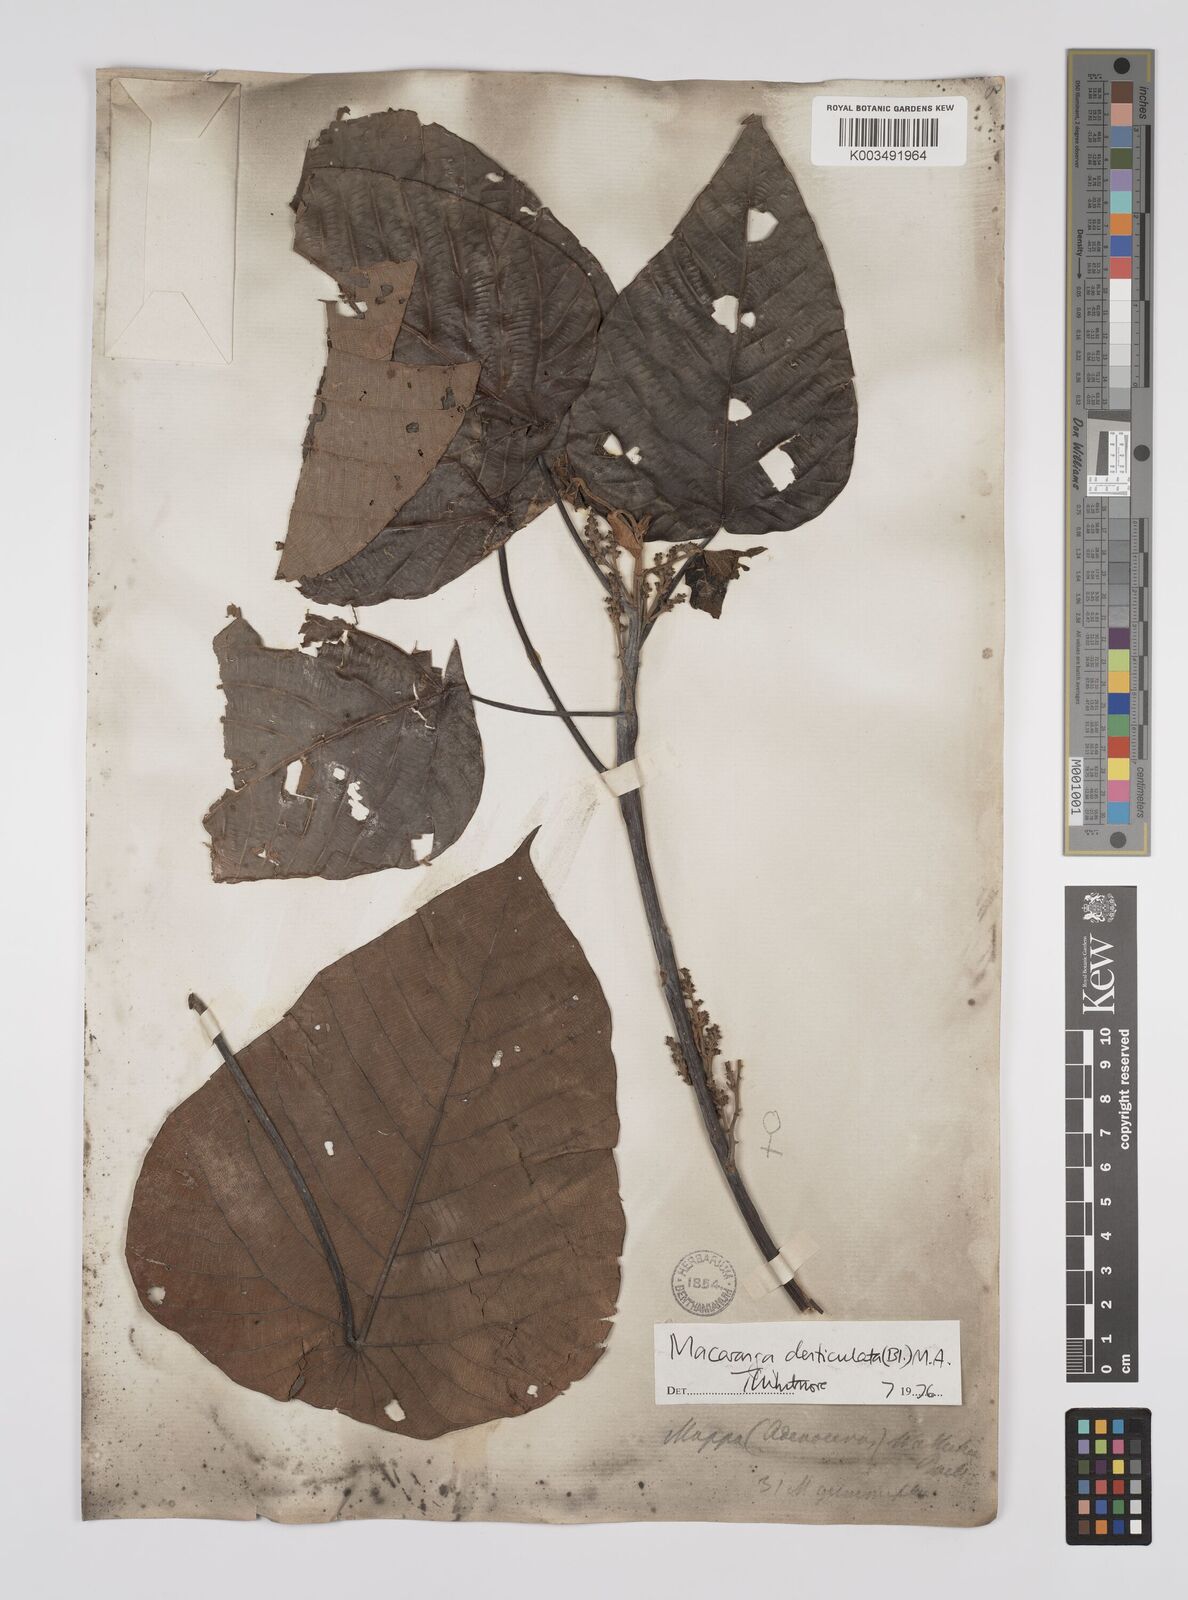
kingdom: Plantae
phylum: Tracheophyta
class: Magnoliopsida
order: Malpighiales
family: Euphorbiaceae
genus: Macaranga
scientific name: Macaranga denticulata
